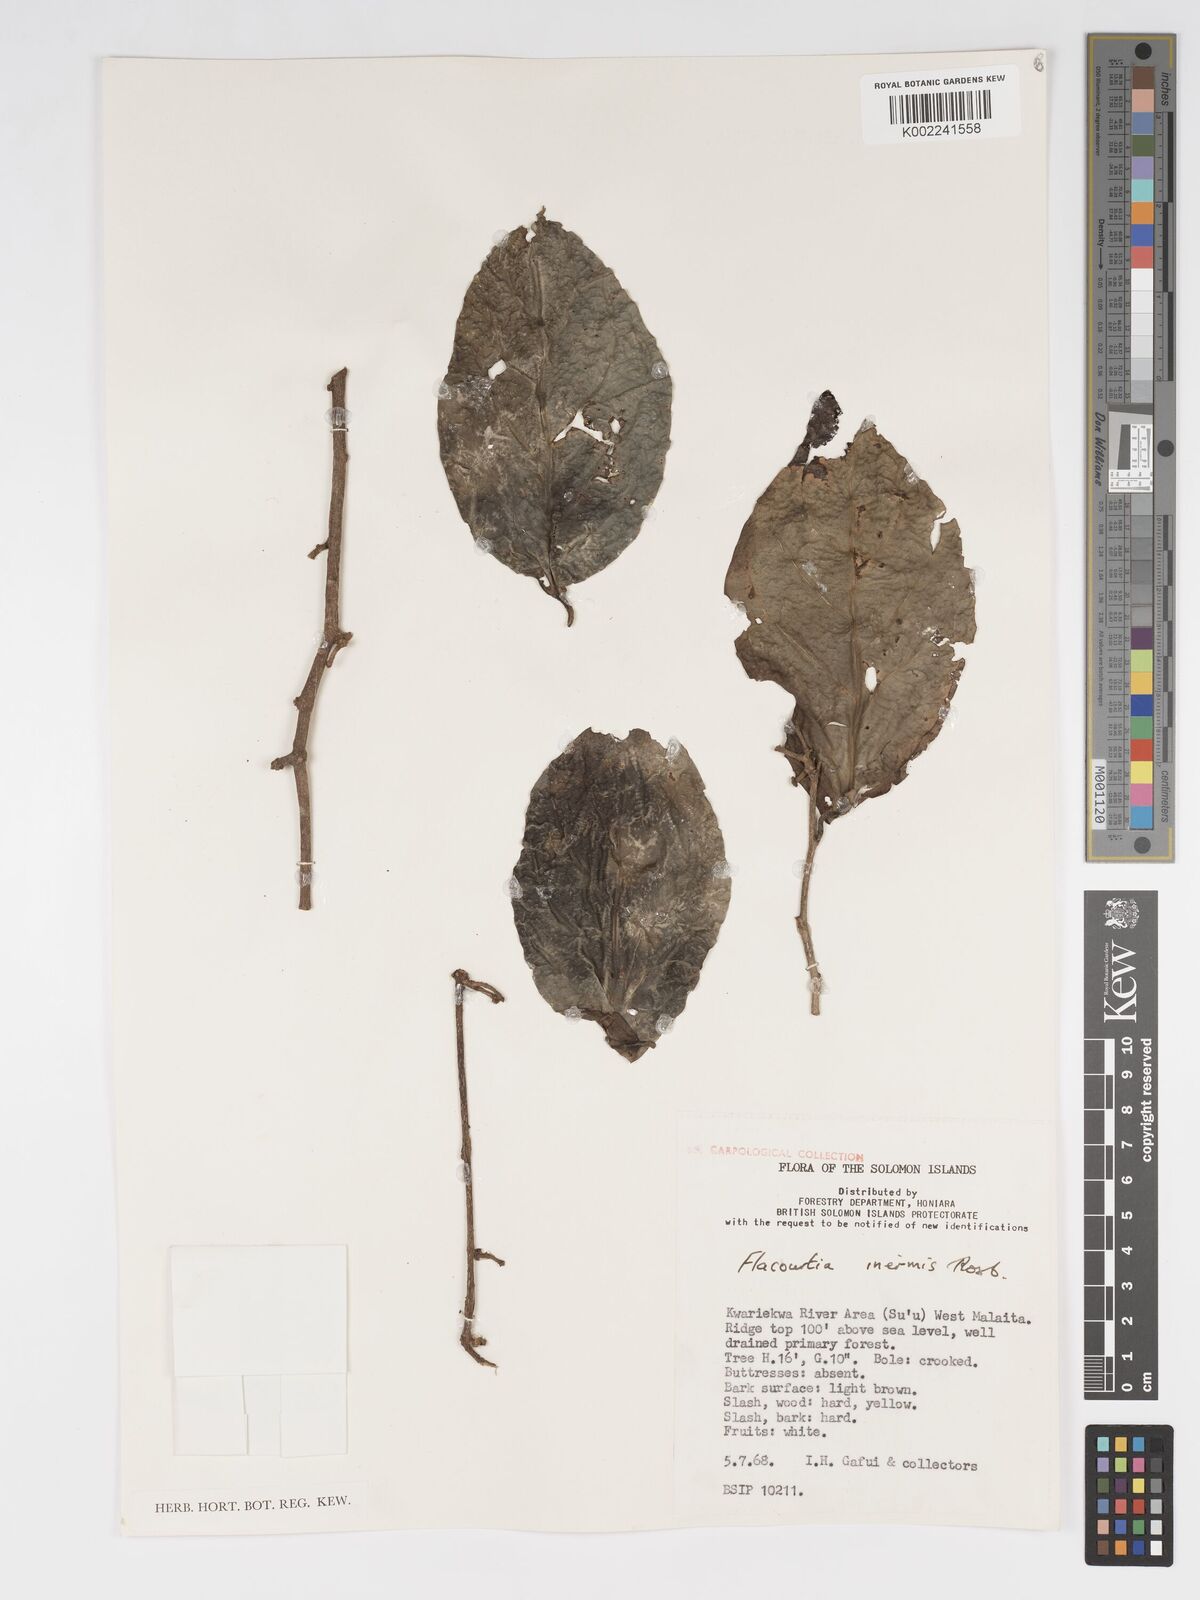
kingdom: Plantae
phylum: Tracheophyta
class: Magnoliopsida
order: Malpighiales
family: Salicaceae
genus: Flacourtia
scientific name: Flacourtia inermis
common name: Plum-of-martinique
